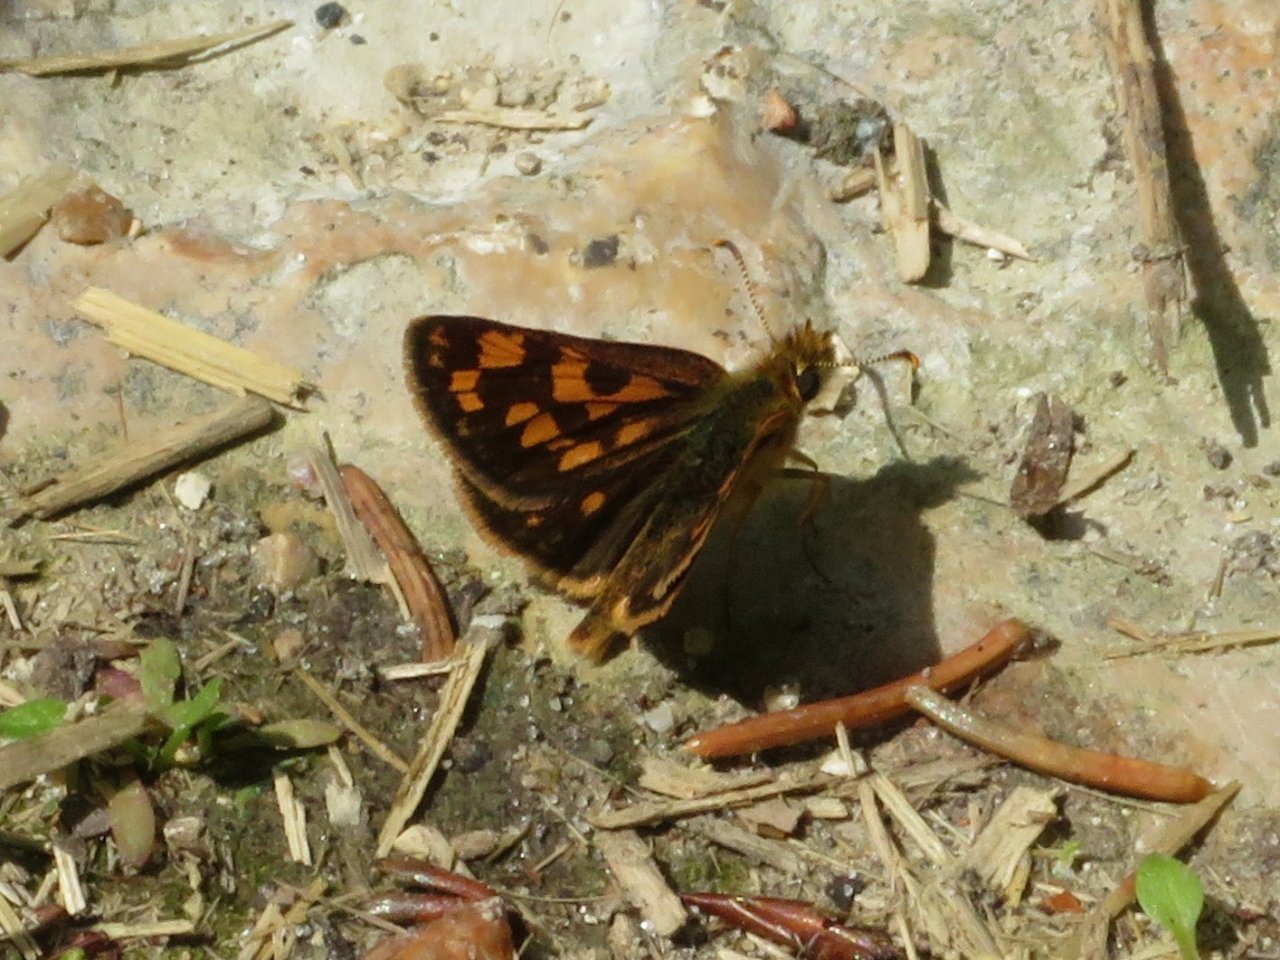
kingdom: Animalia
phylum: Arthropoda
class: Insecta
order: Lepidoptera
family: Hesperiidae
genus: Carterocephalus
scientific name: Carterocephalus palaemon
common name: Chequered Skipper
